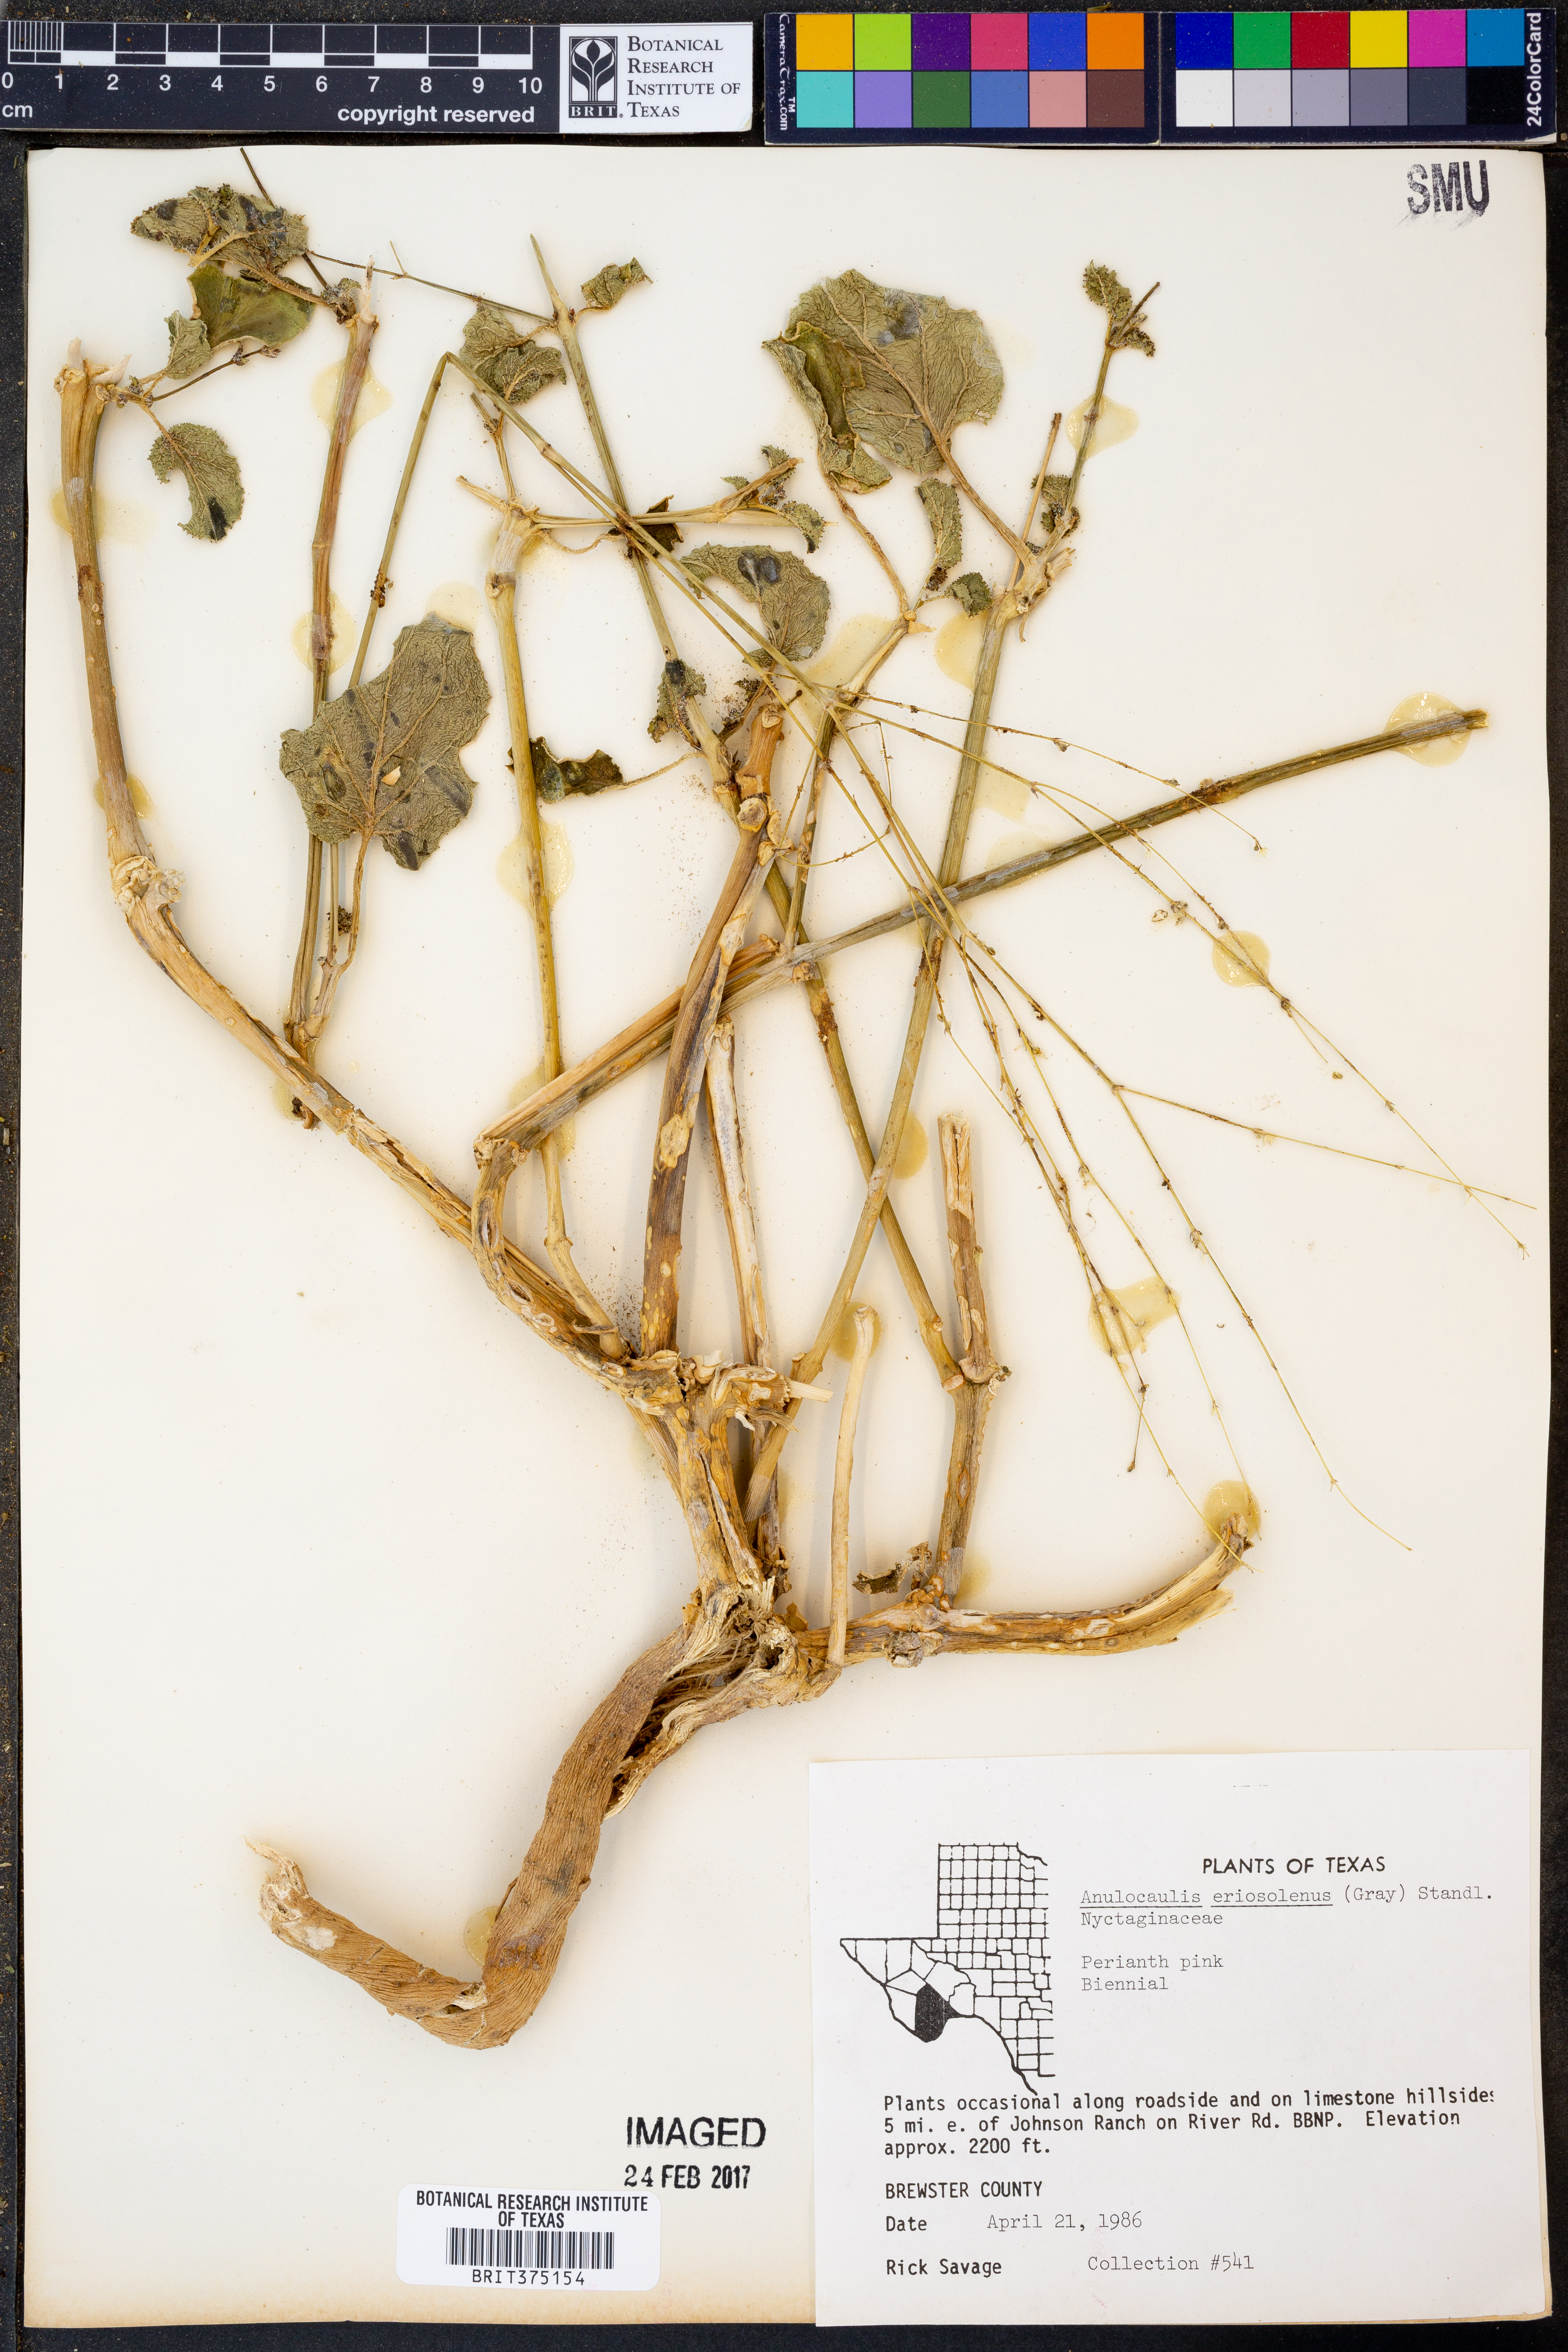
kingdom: Plantae
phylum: Tracheophyta
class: Magnoliopsida
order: Caryophyllales
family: Nyctaginaceae
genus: Anulocaulis
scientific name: Anulocaulis eriosolenus
